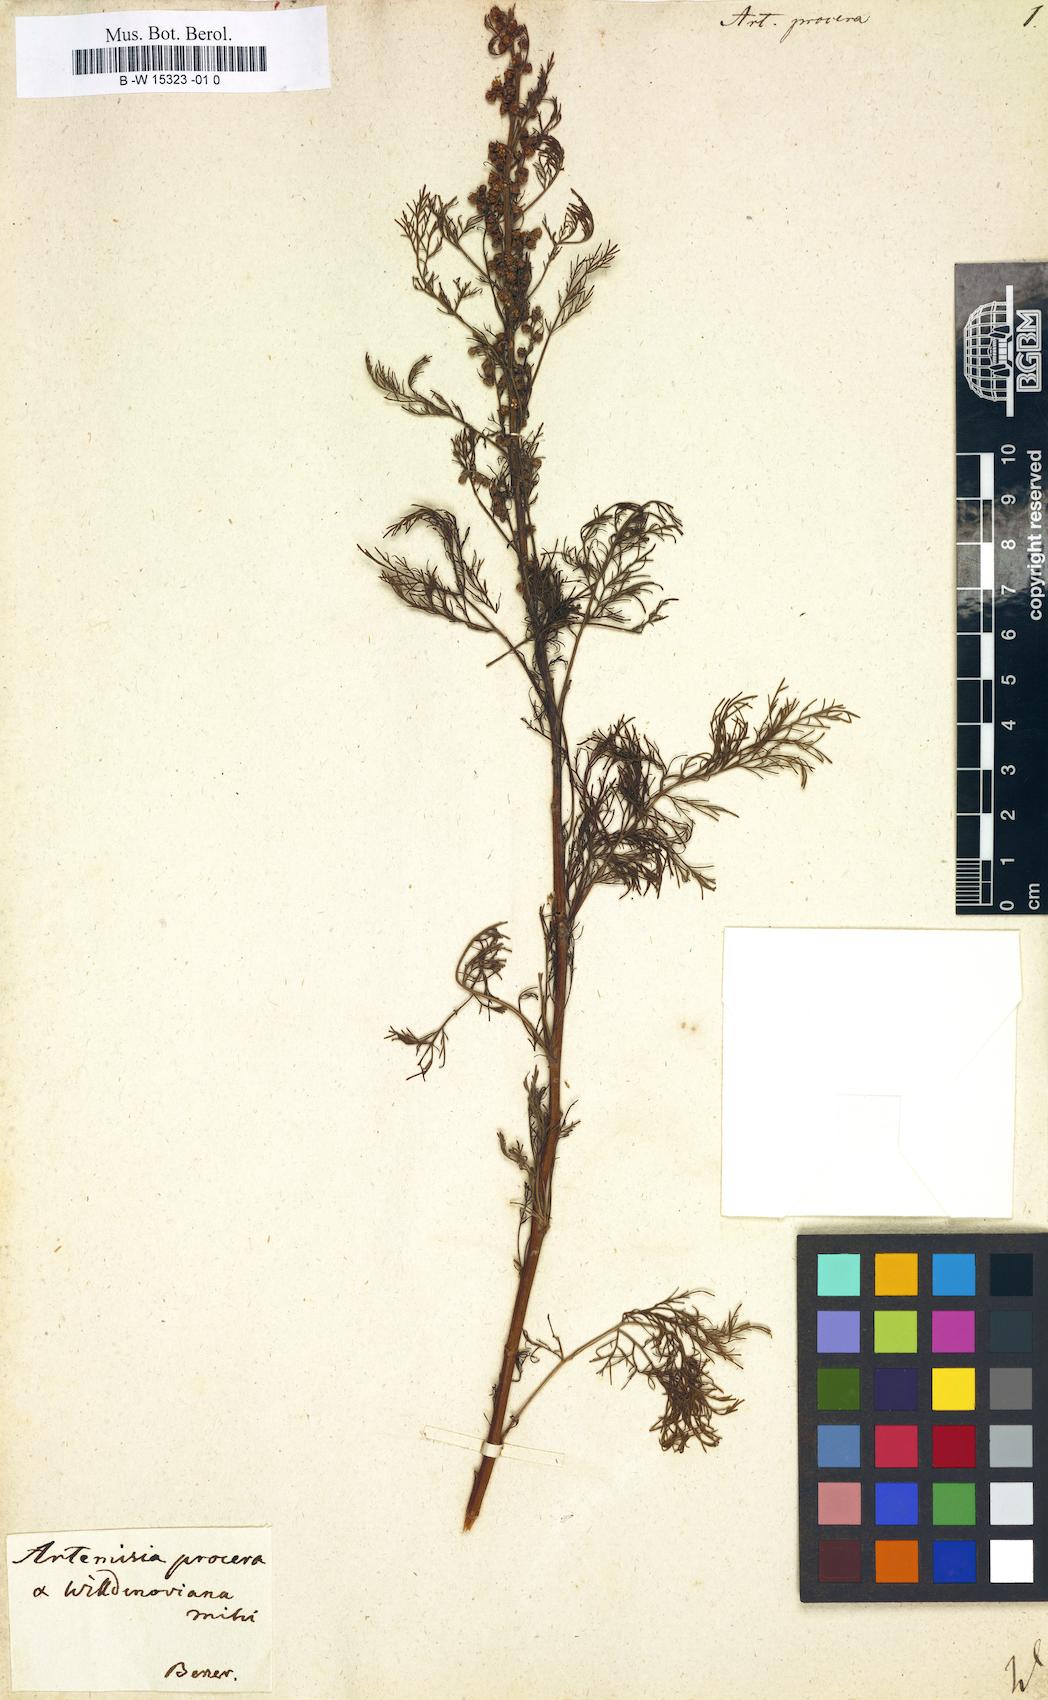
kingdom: Plantae
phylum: Tracheophyta
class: Magnoliopsida
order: Asterales
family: Asteraceae
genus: Artemisia
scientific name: Artemisia abrotanum
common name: Southernwood
